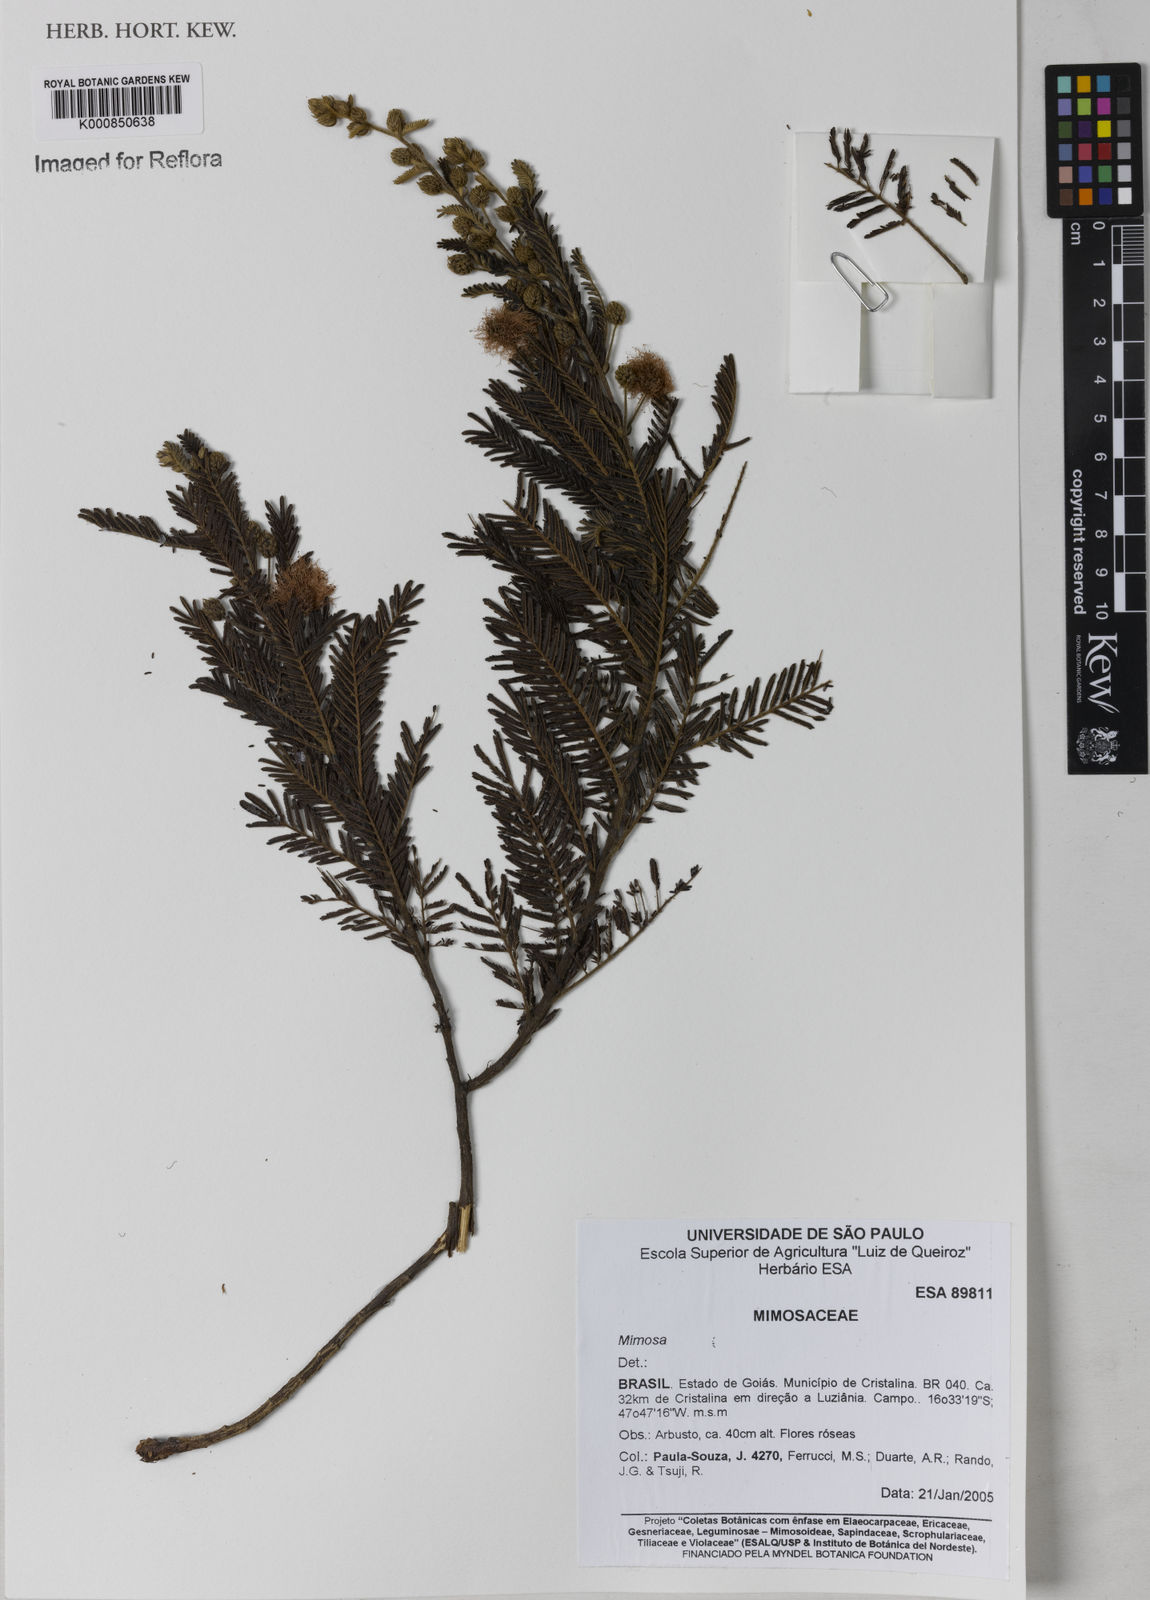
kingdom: Plantae
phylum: Tracheophyta
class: Magnoliopsida
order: Fabales
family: Fabaceae
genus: Mimosa
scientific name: Mimosa foliolosa
